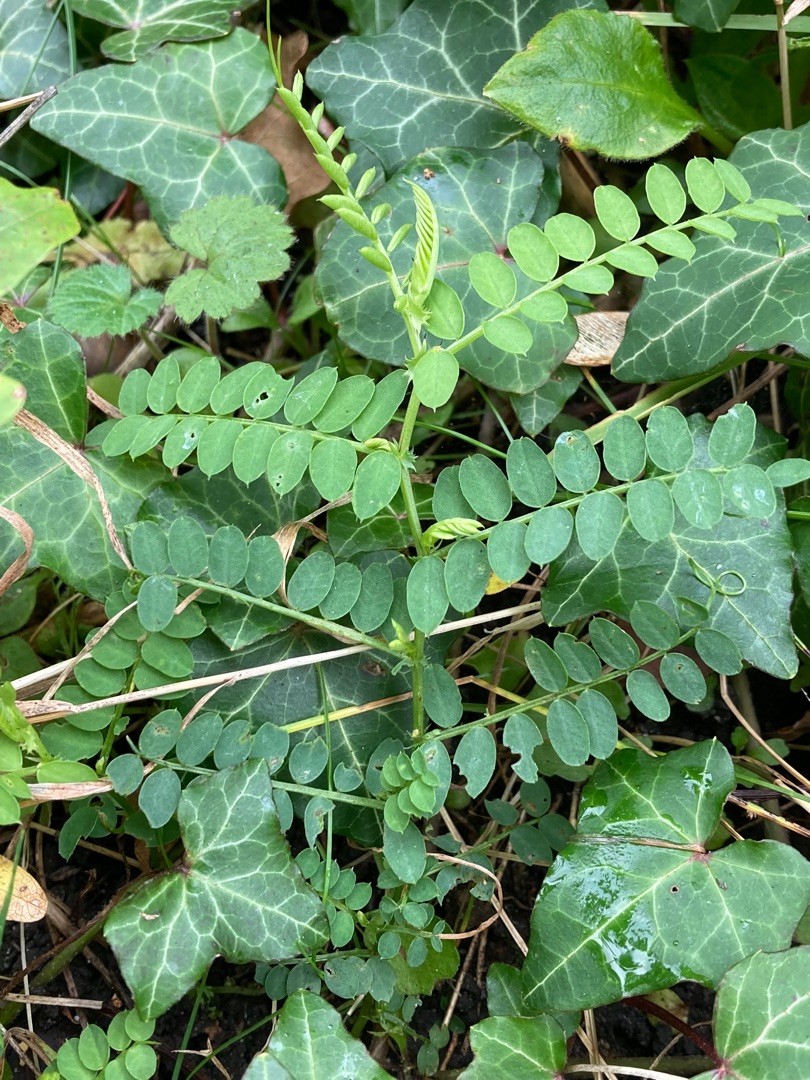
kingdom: Plantae
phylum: Tracheophyta
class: Magnoliopsida
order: Fabales
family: Fabaceae
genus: Vicia
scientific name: Vicia sylvatica
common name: Skov-vikke
